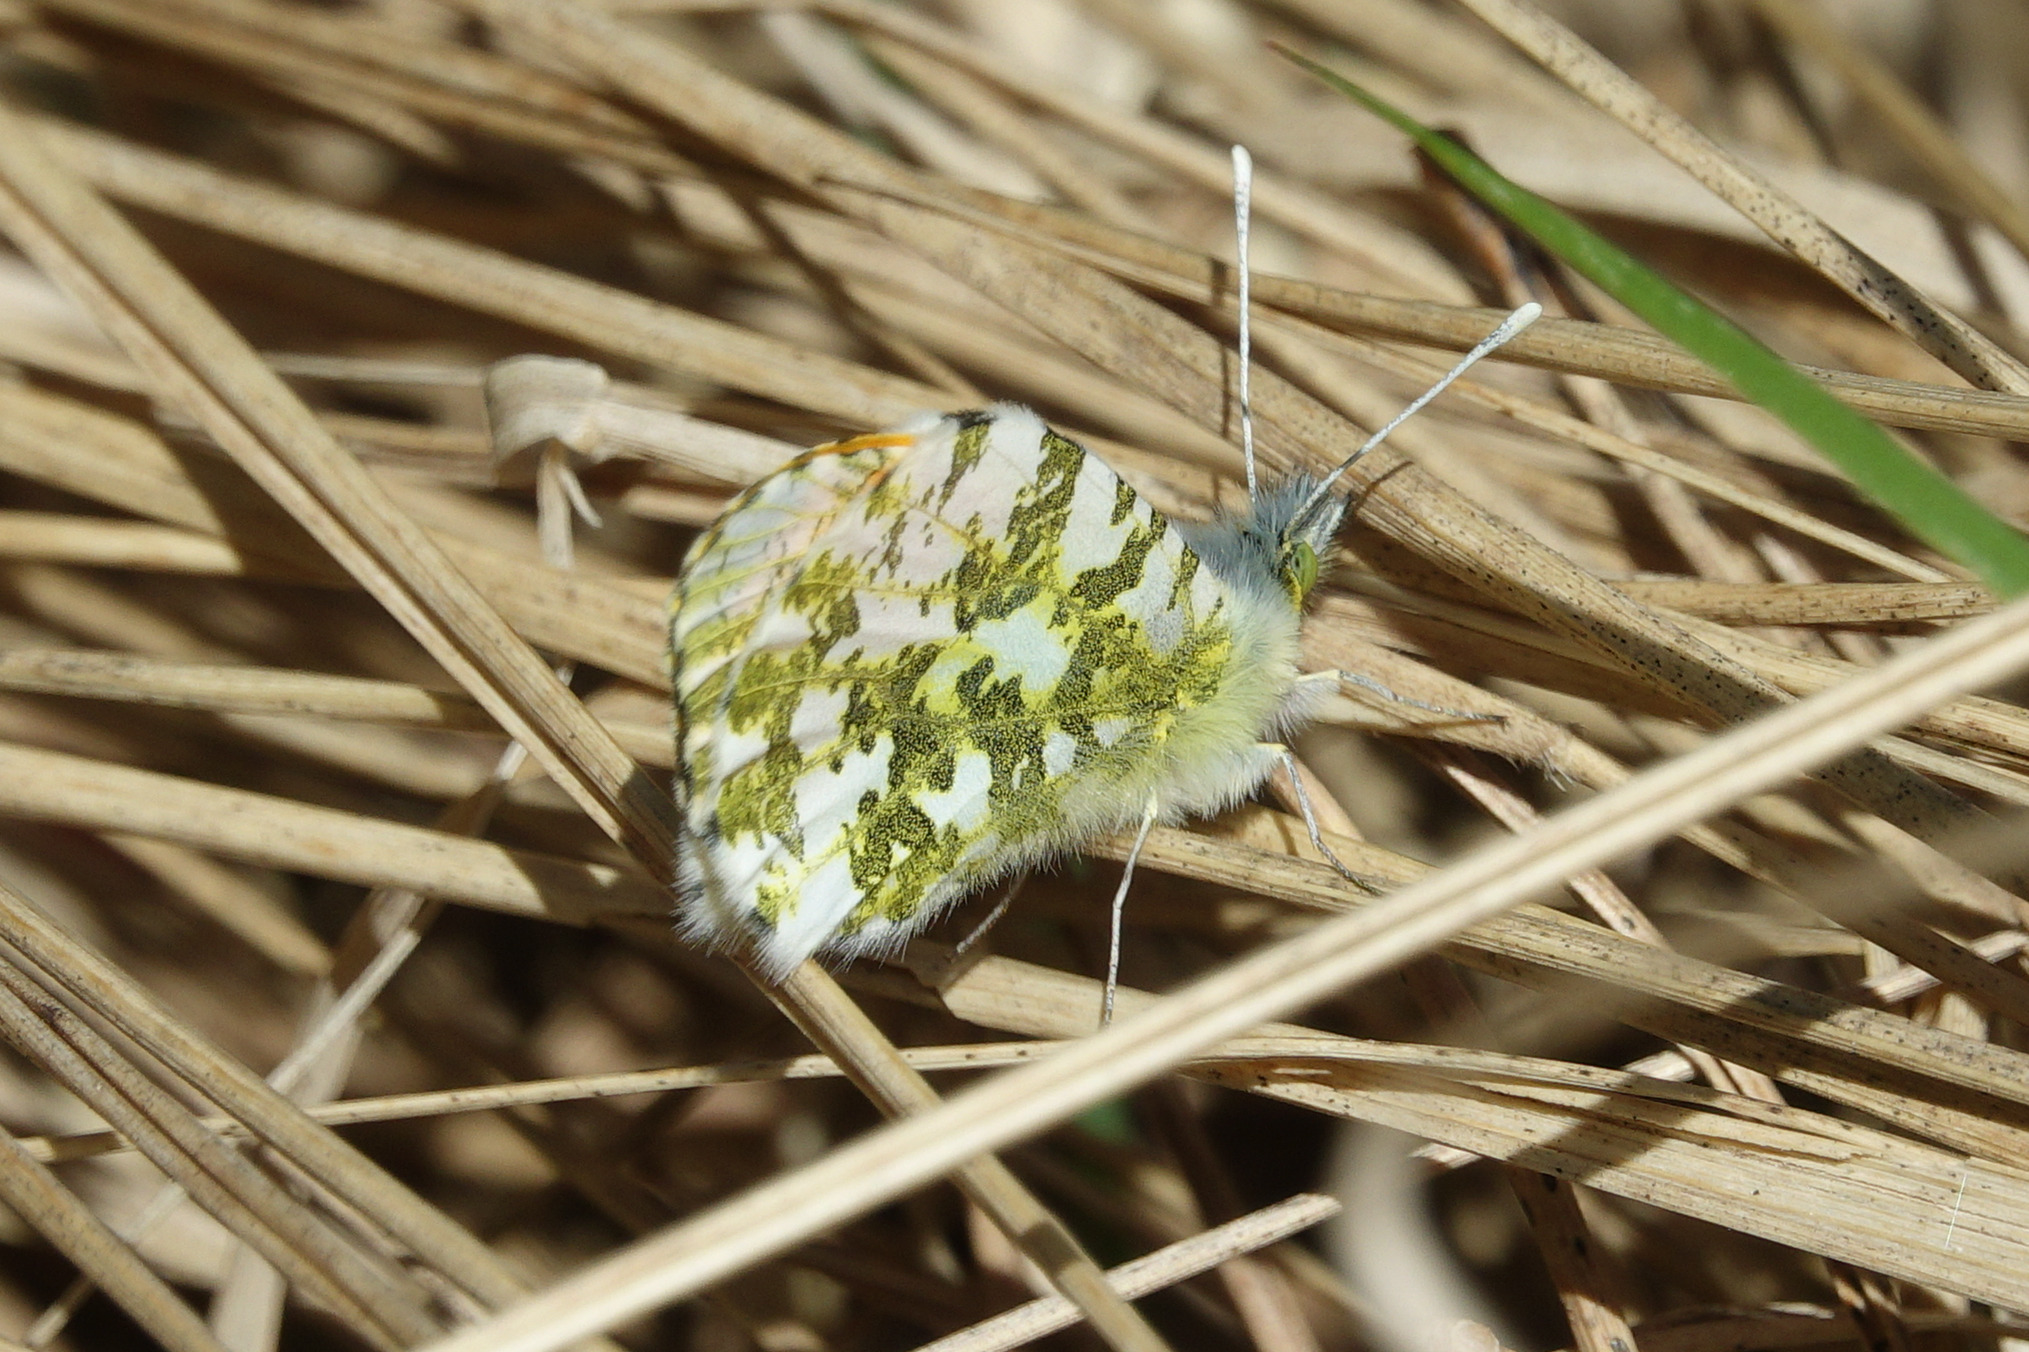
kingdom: Animalia
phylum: Arthropoda
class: Insecta
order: Lepidoptera
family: Pieridae
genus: Anthocharis
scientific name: Anthocharis cardamines
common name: Aurora
